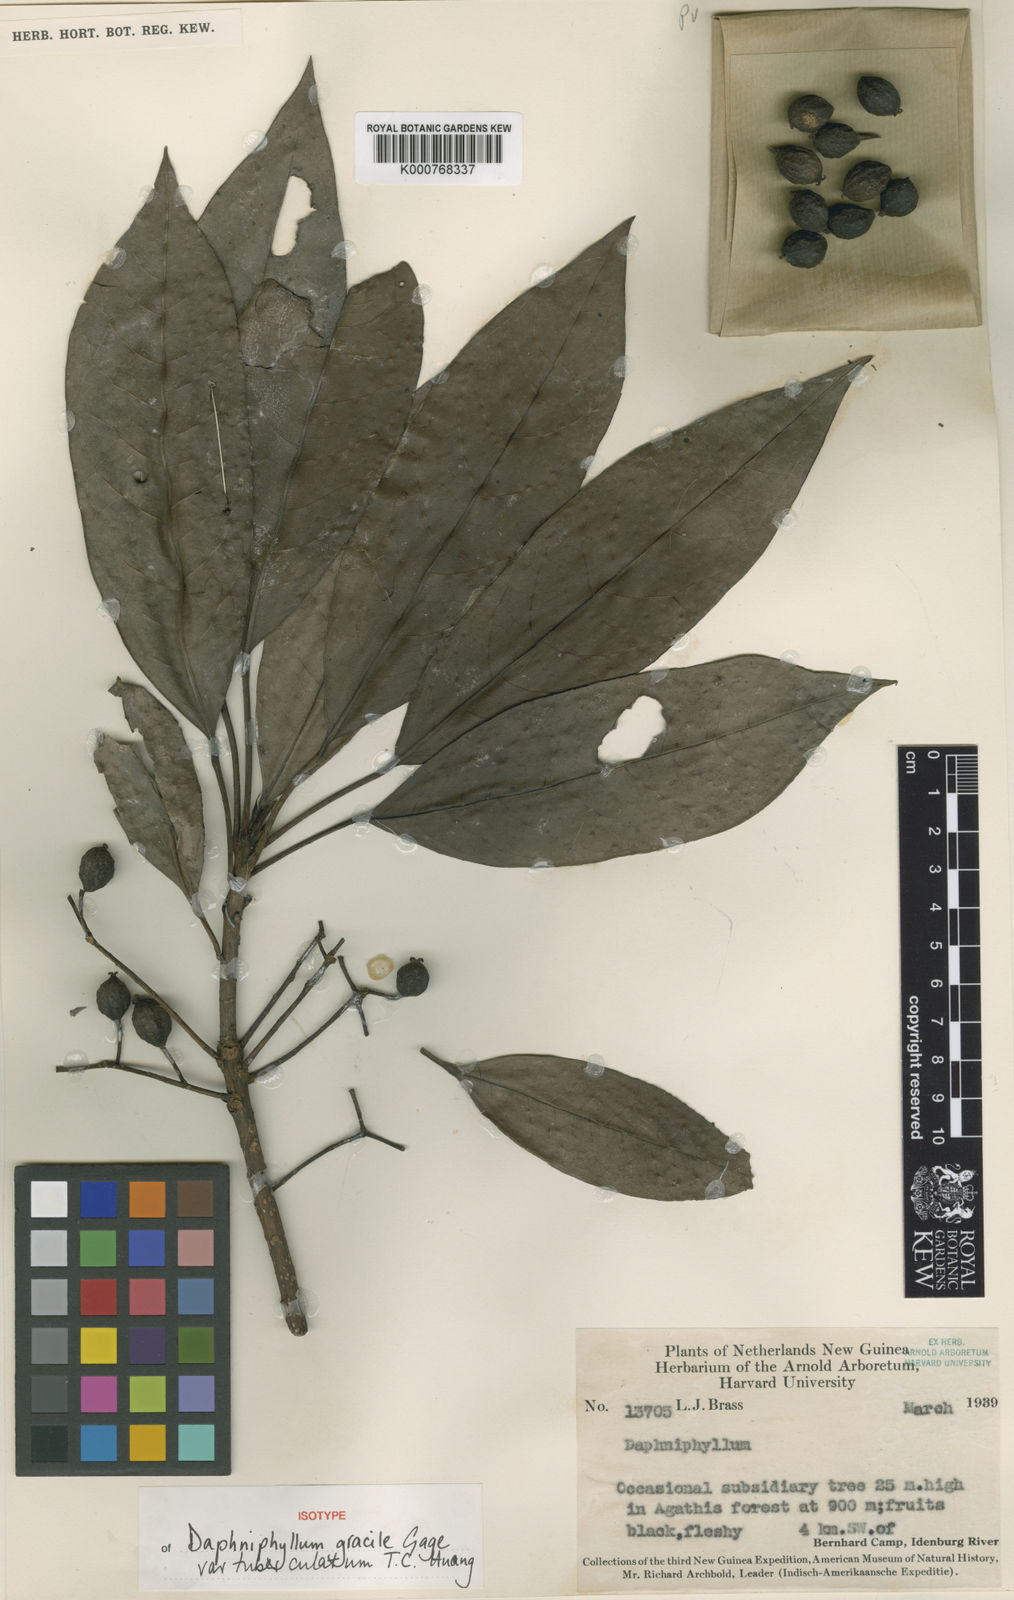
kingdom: Plantae
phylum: Tracheophyta
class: Magnoliopsida
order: Saxifragales
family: Daphniphyllaceae
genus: Daphniphyllum
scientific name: Daphniphyllum papuanum
